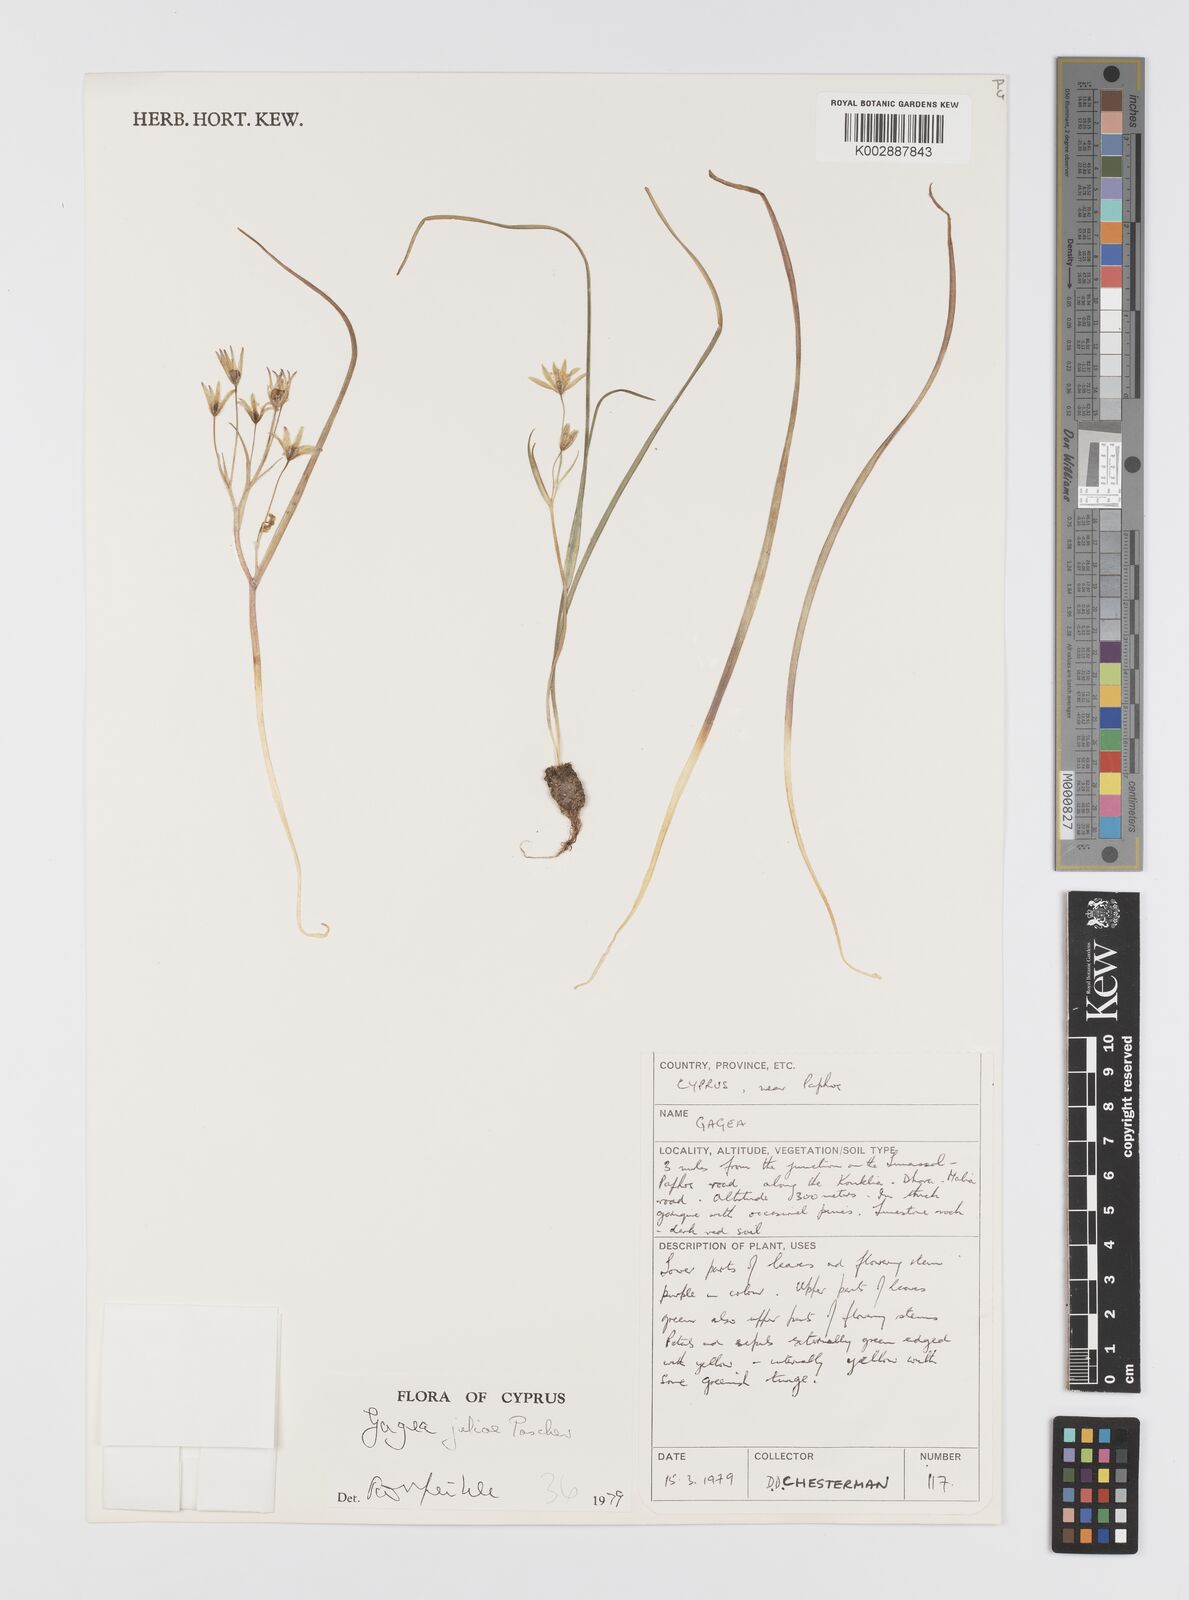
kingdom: Plantae
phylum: Tracheophyta
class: Liliopsida
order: Liliales
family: Liliaceae
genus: Gagea
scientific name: Gagea juliae
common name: Julia’s gagea
